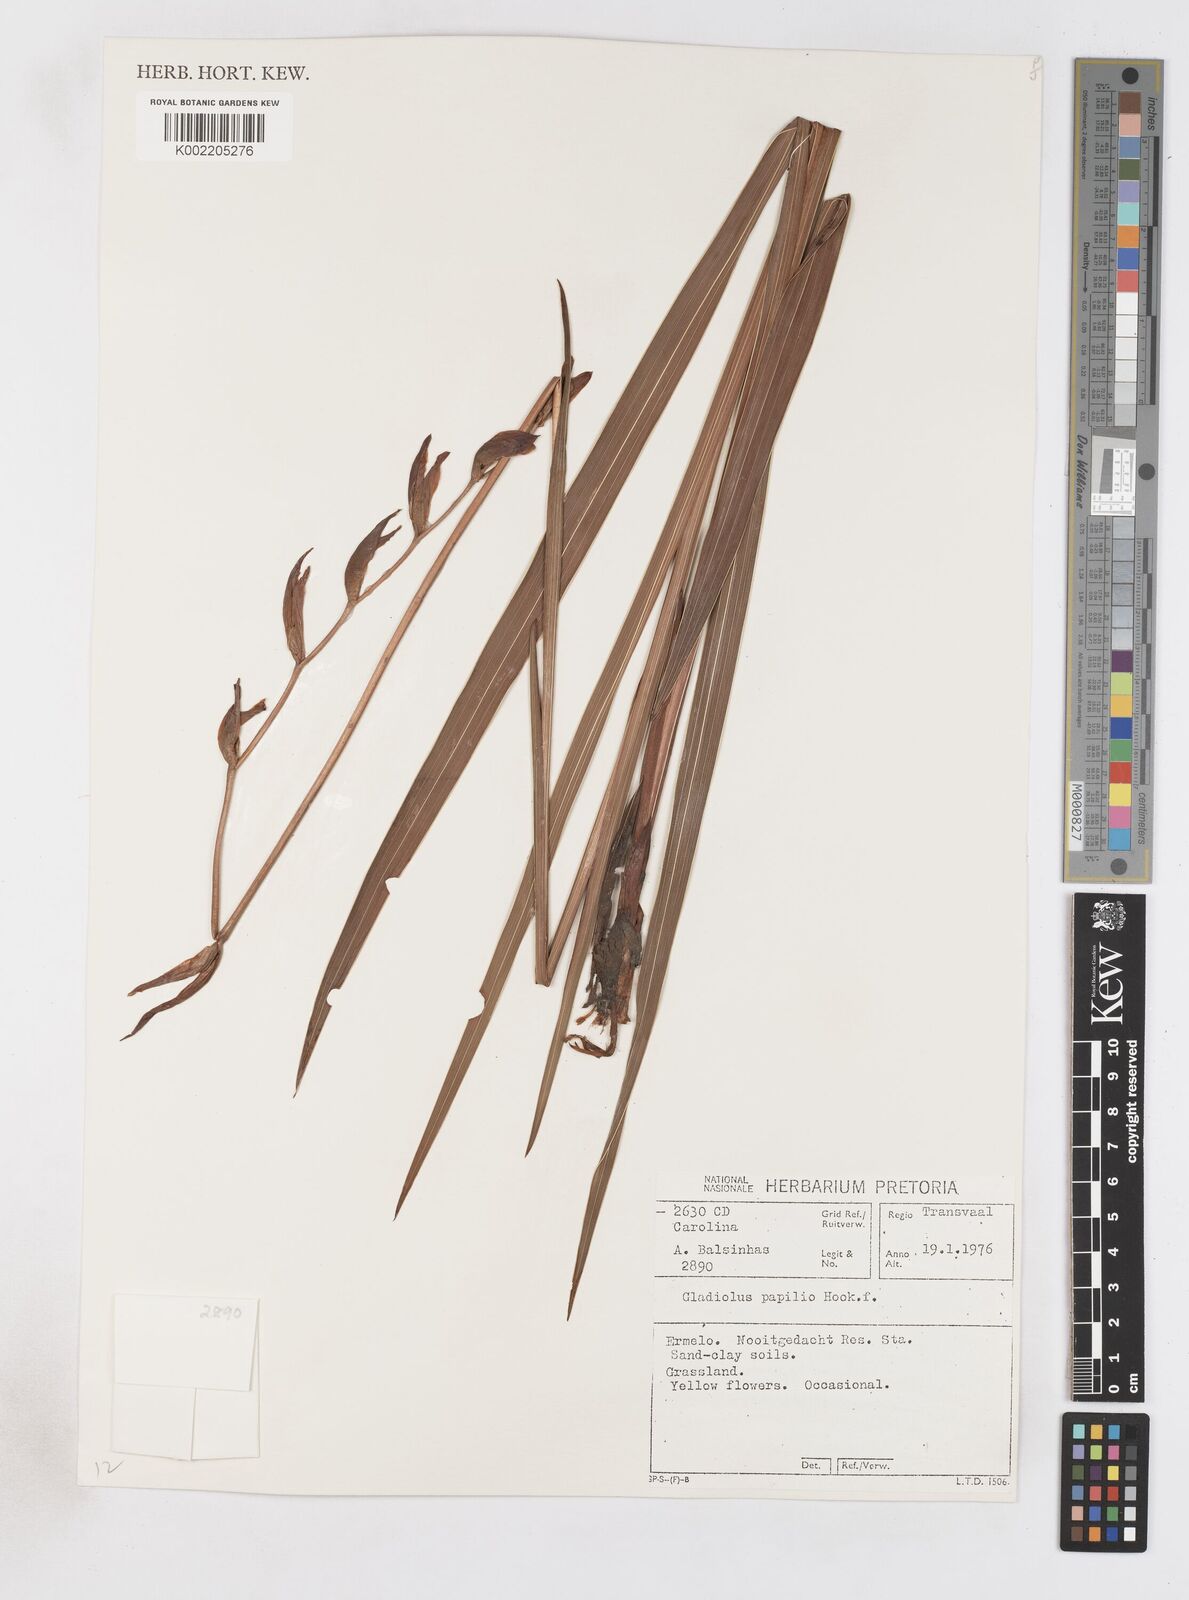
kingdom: Plantae
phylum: Tracheophyta
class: Liliopsida
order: Asparagales
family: Iridaceae
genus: Gladiolus
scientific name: Gladiolus papilio
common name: Goldblotch gladiolus
